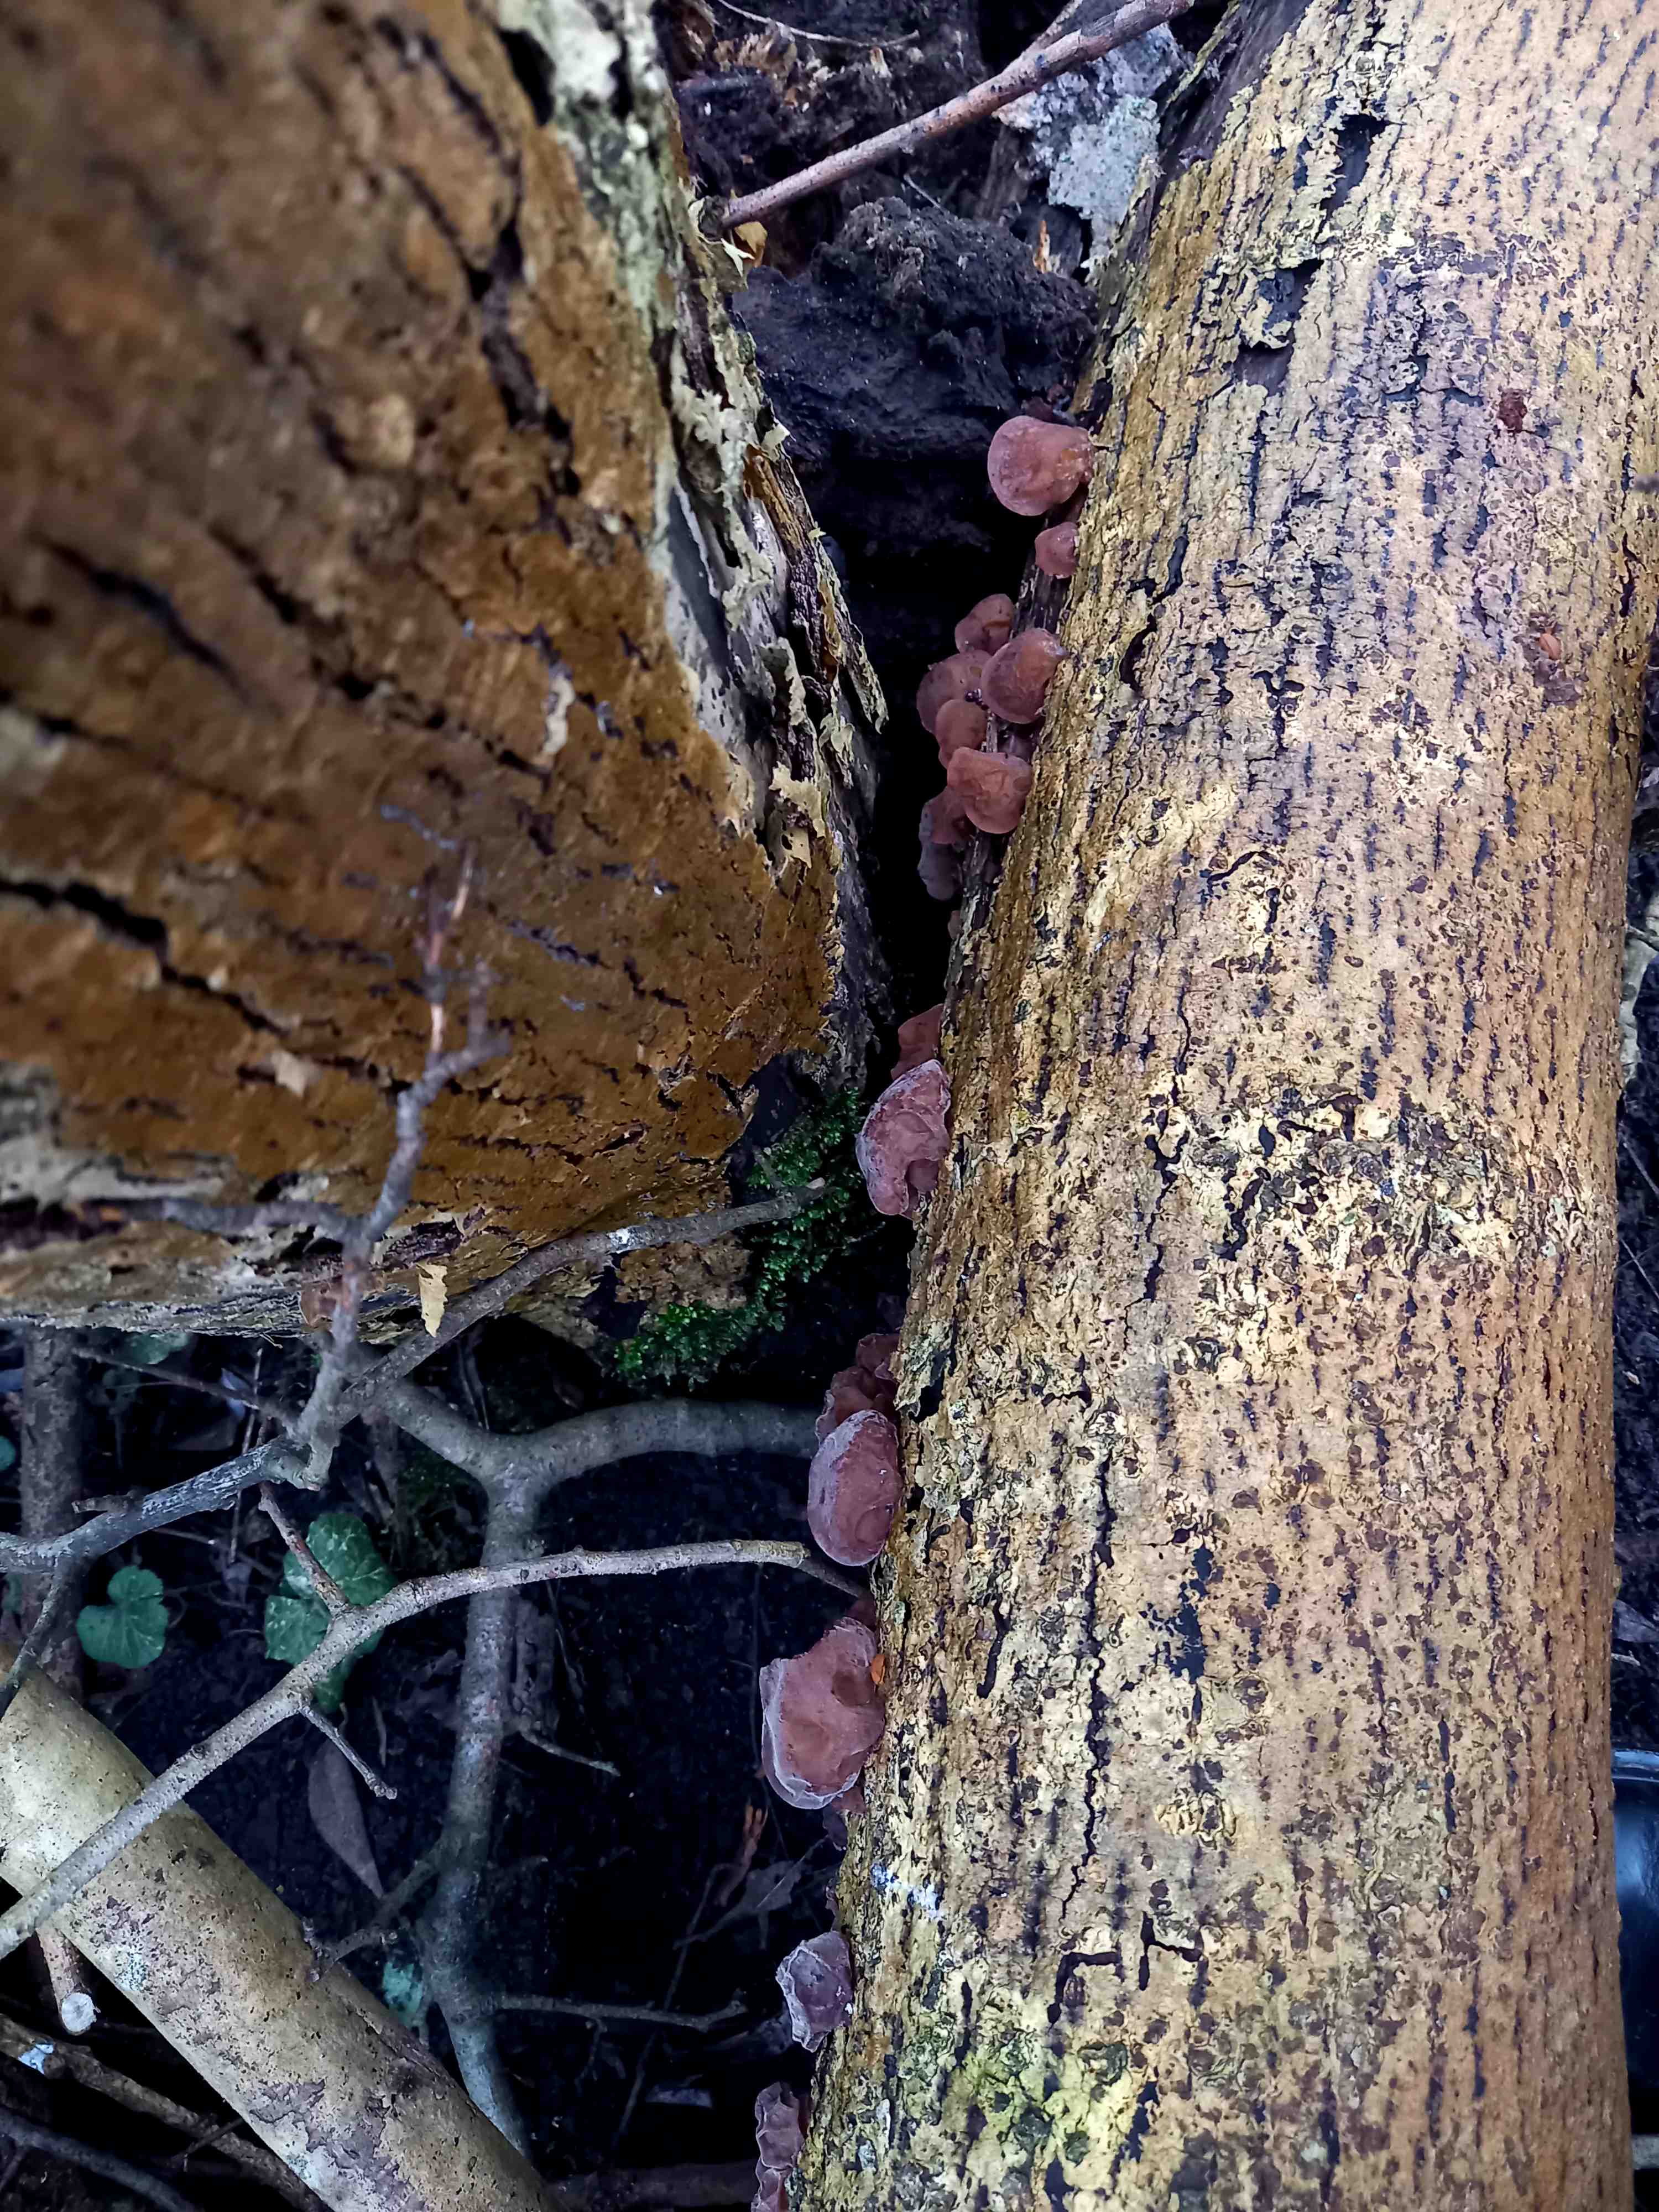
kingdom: Fungi
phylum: Basidiomycota
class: Agaricomycetes
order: Auriculariales
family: Auriculariaceae
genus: Auricularia
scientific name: Auricularia auricula-judae
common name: almindelig judasøre
